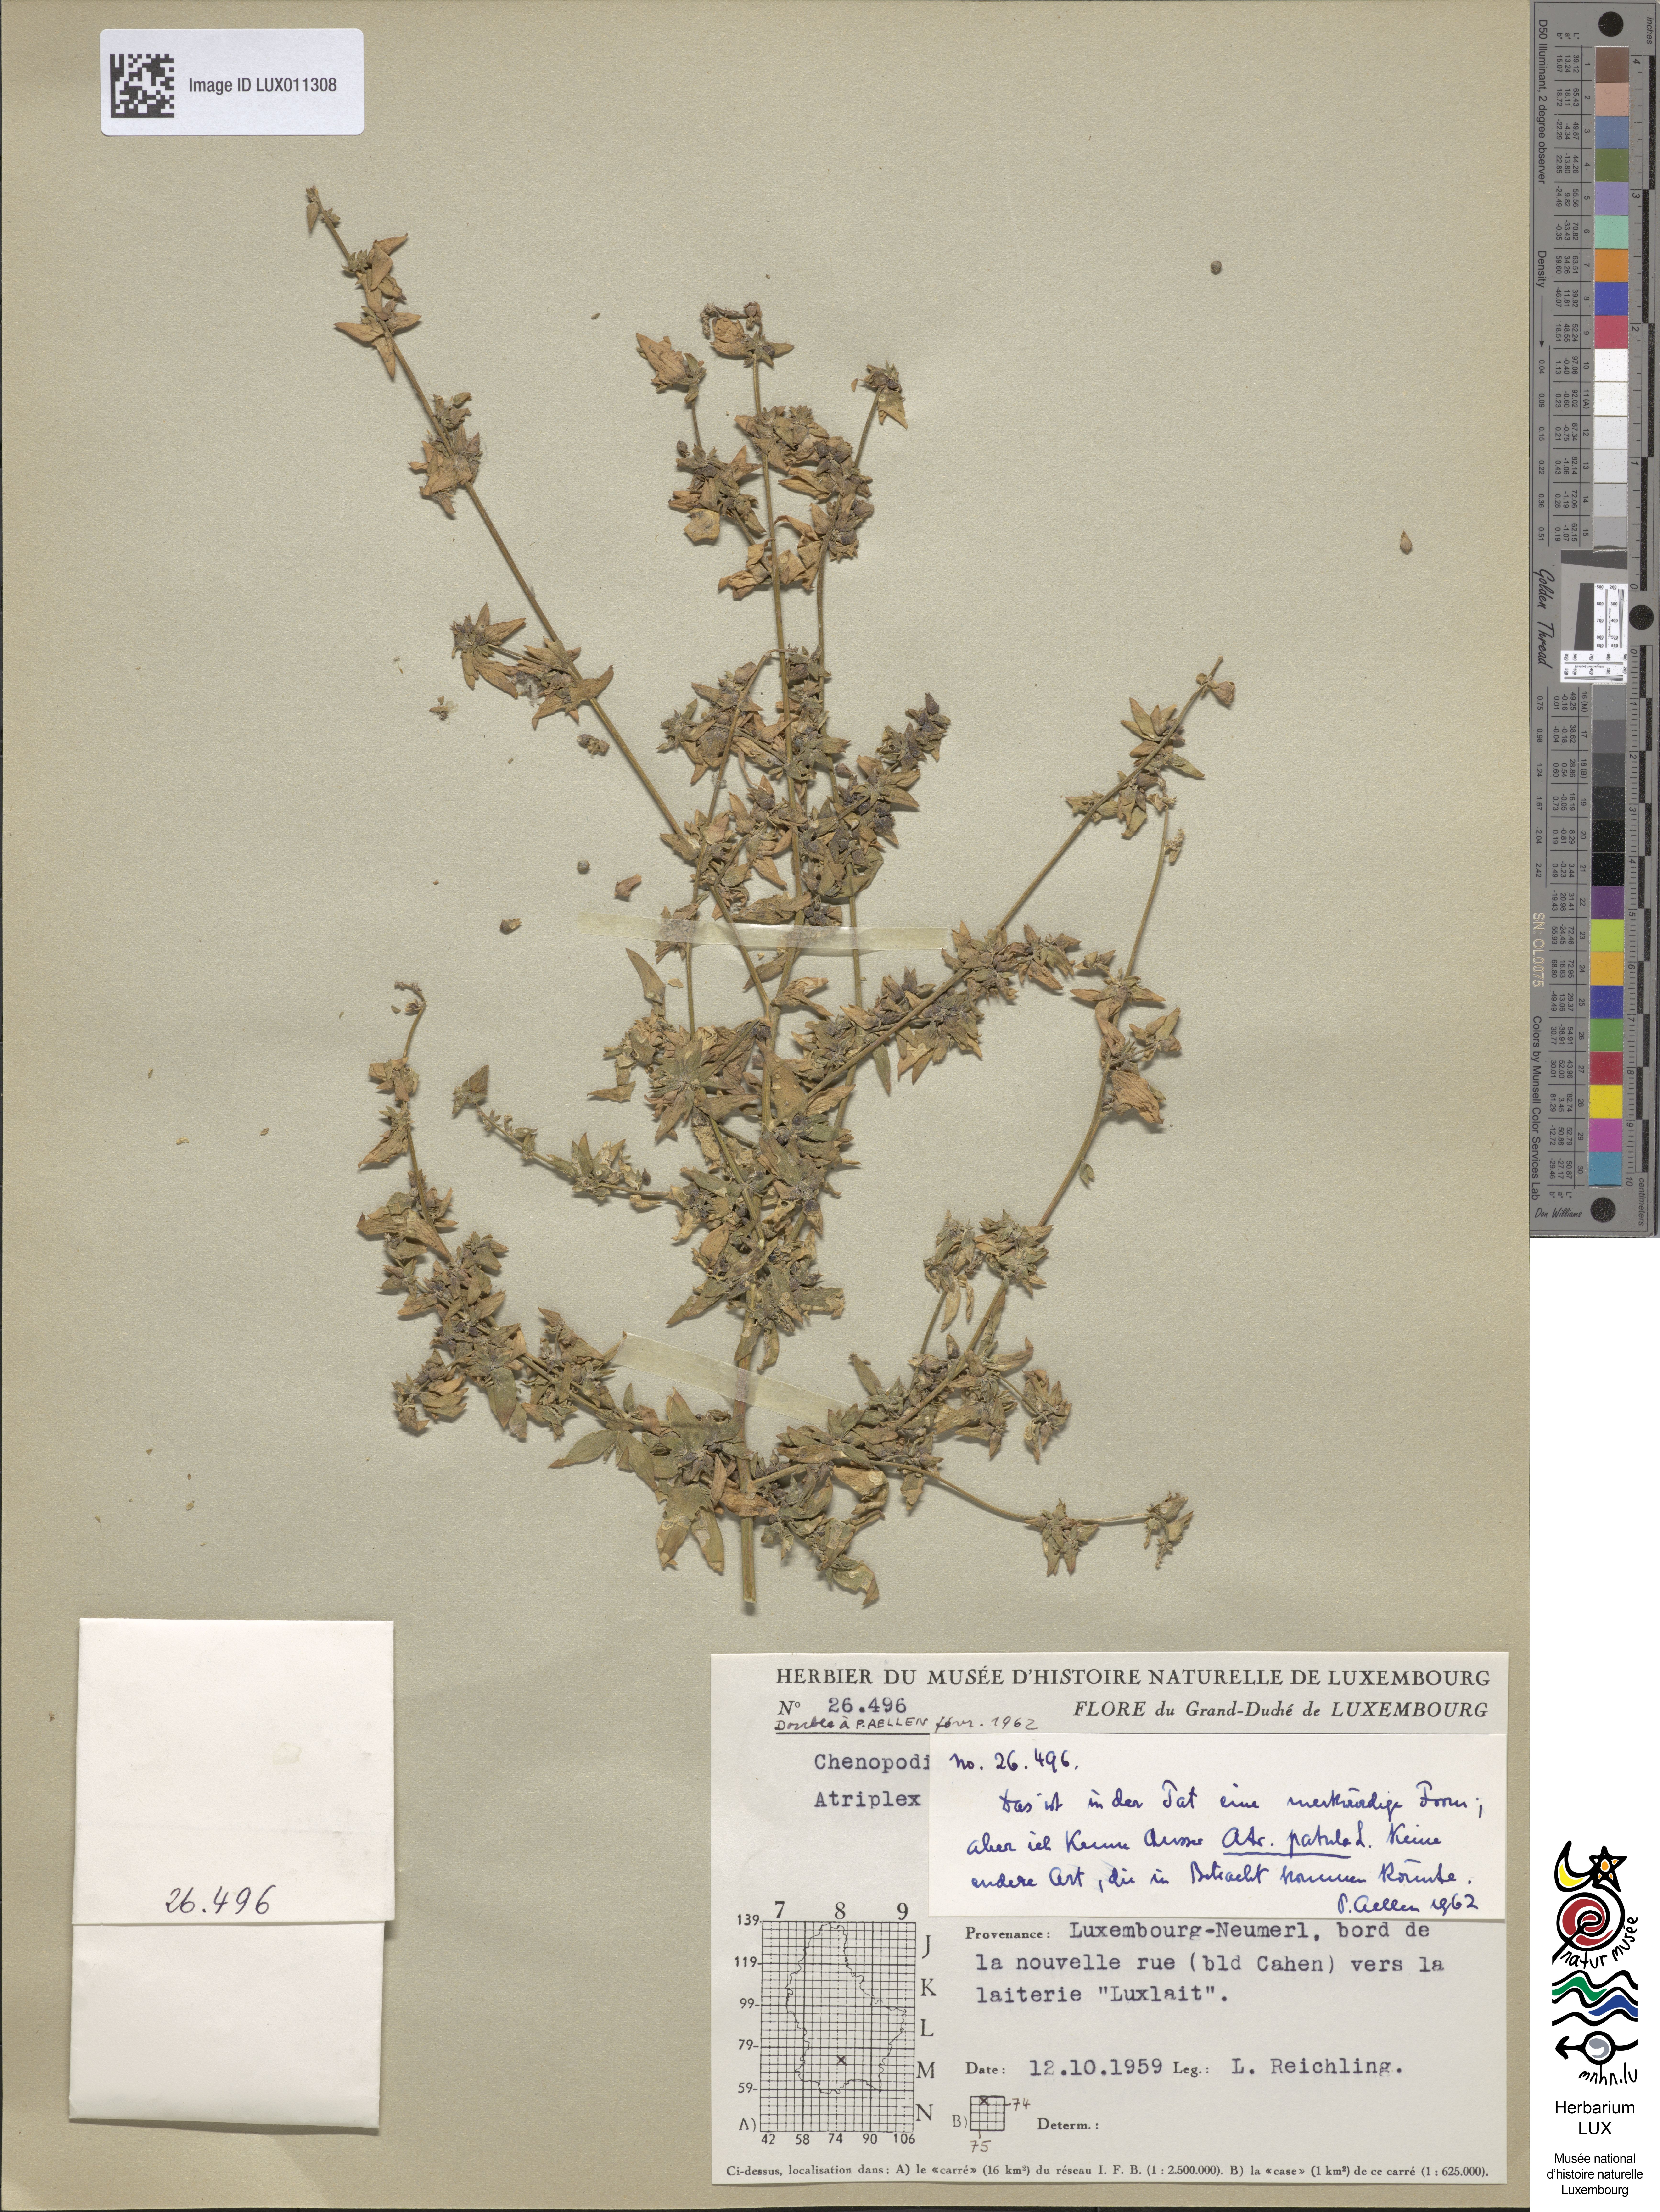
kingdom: Plantae
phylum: Tracheophyta
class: Magnoliopsida
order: Caryophyllales
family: Amaranthaceae
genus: Atriplex
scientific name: Atriplex patula
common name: Common orache
